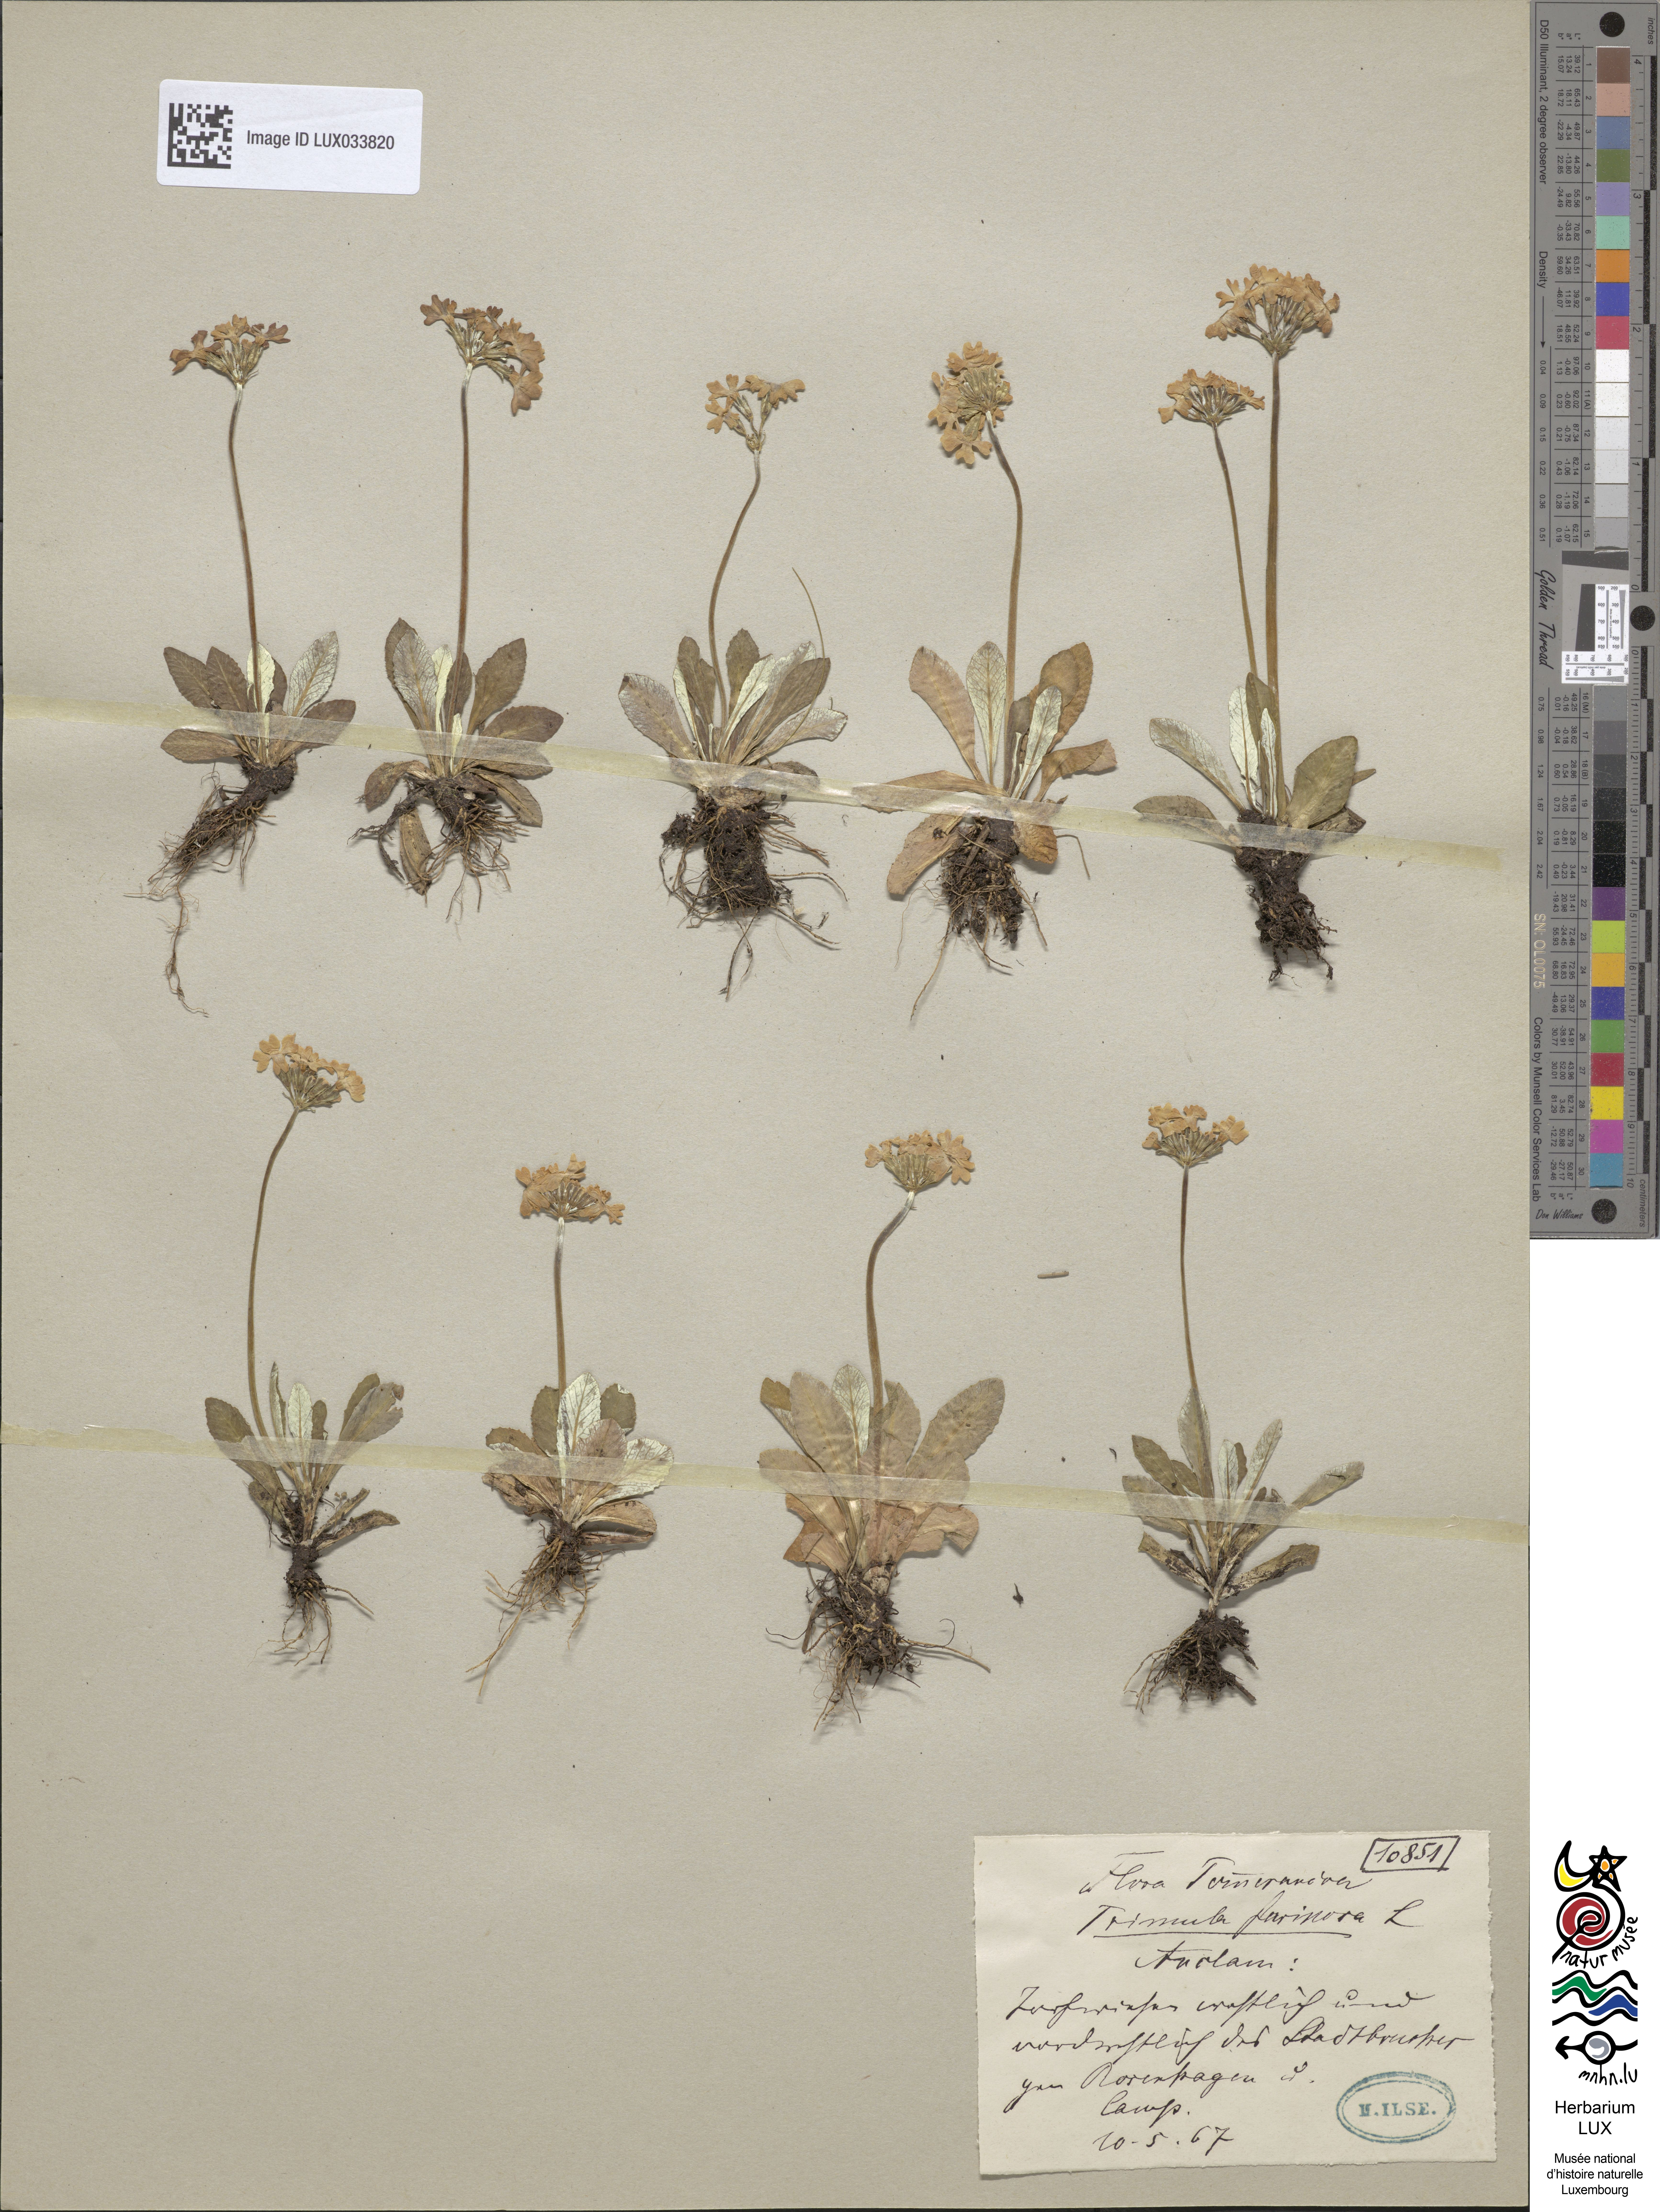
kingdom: Plantae
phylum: Tracheophyta
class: Magnoliopsida
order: Ericales
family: Primulaceae
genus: Primula
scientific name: Primula farinosa
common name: Bird's-eye primrose
